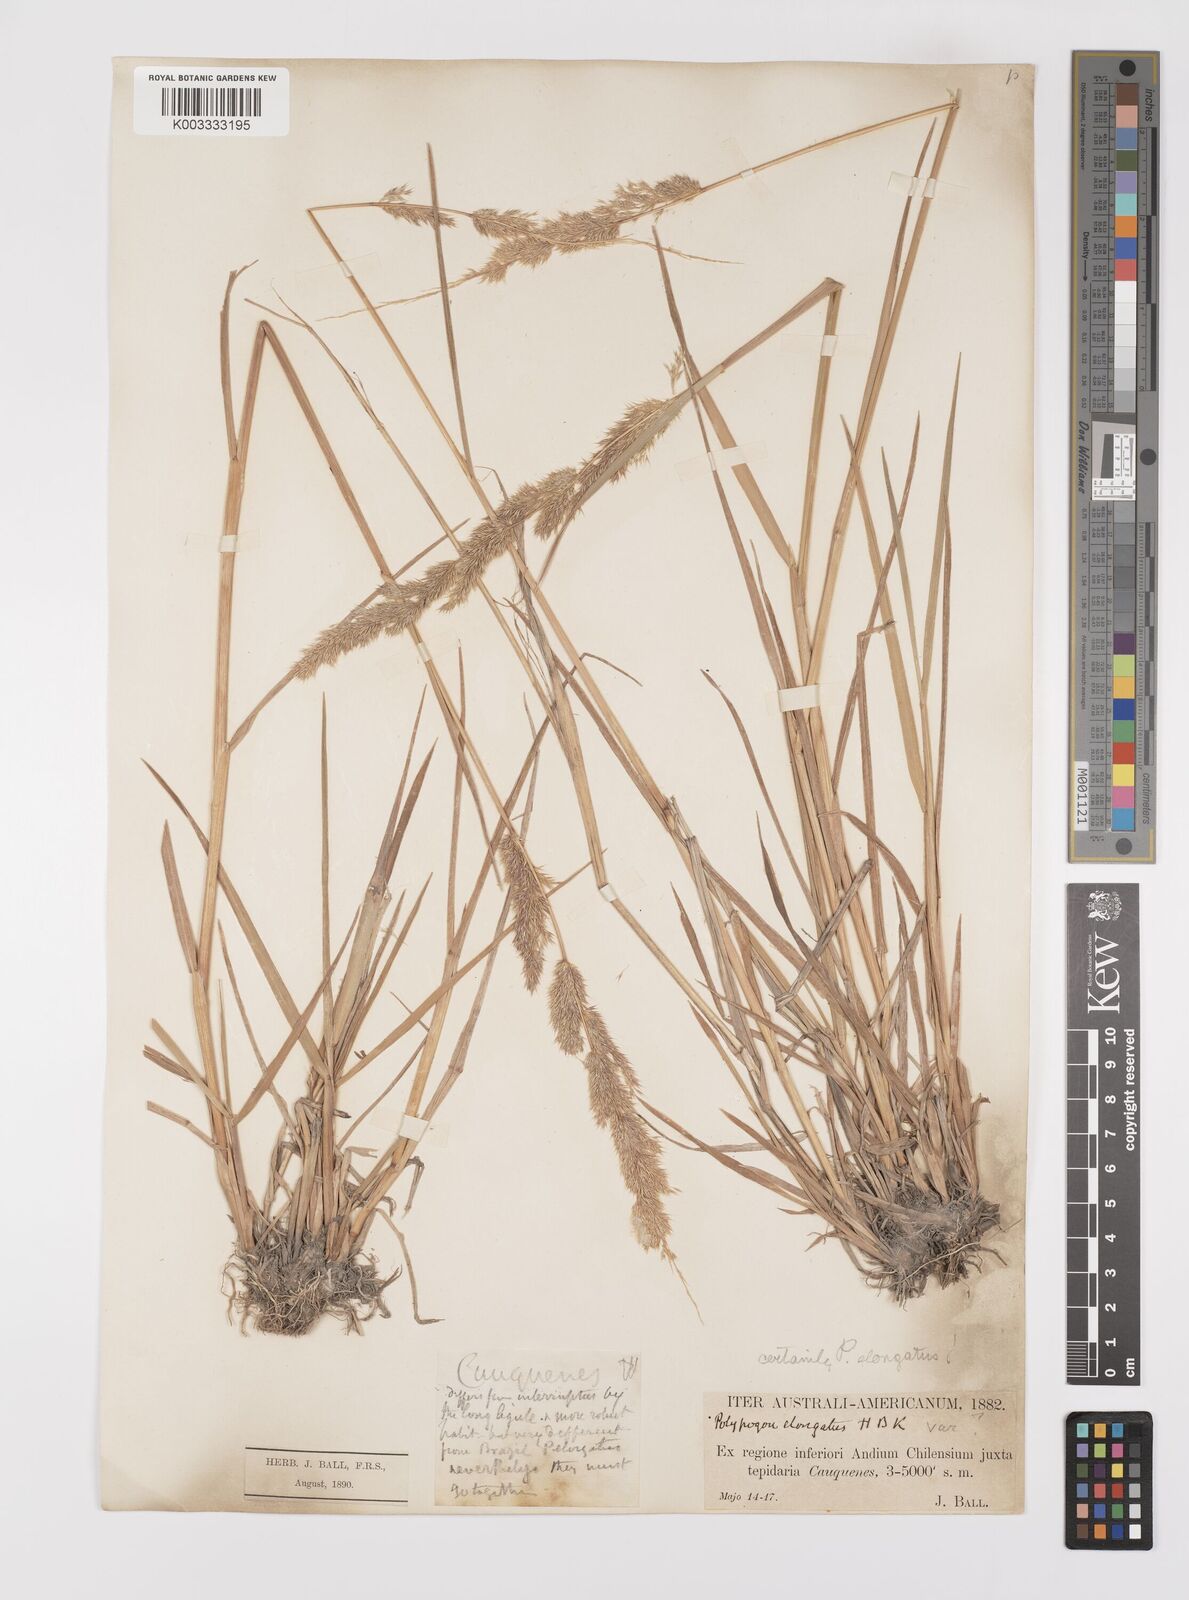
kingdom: Plantae
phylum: Tracheophyta
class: Liliopsida
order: Poales
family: Poaceae
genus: Polypogon
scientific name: Polypogon elongatus
